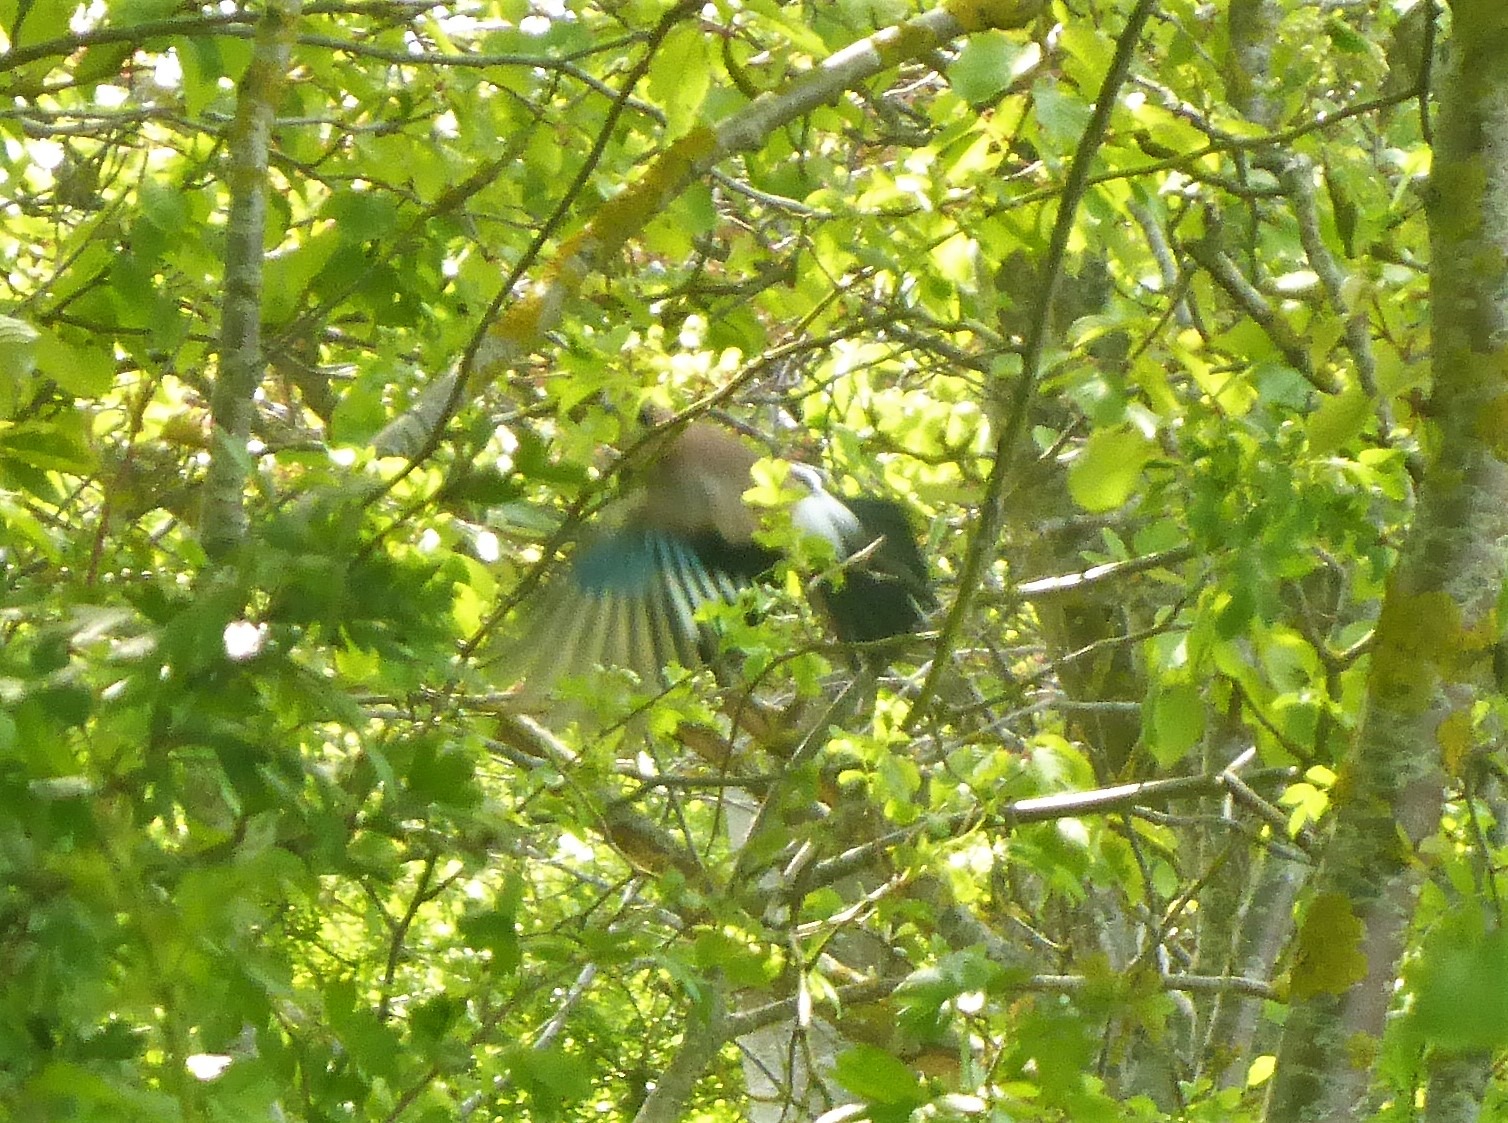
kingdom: Animalia
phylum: Chordata
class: Aves
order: Passeriformes
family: Corvidae
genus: Garrulus
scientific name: Garrulus glandarius
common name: Skovskade
